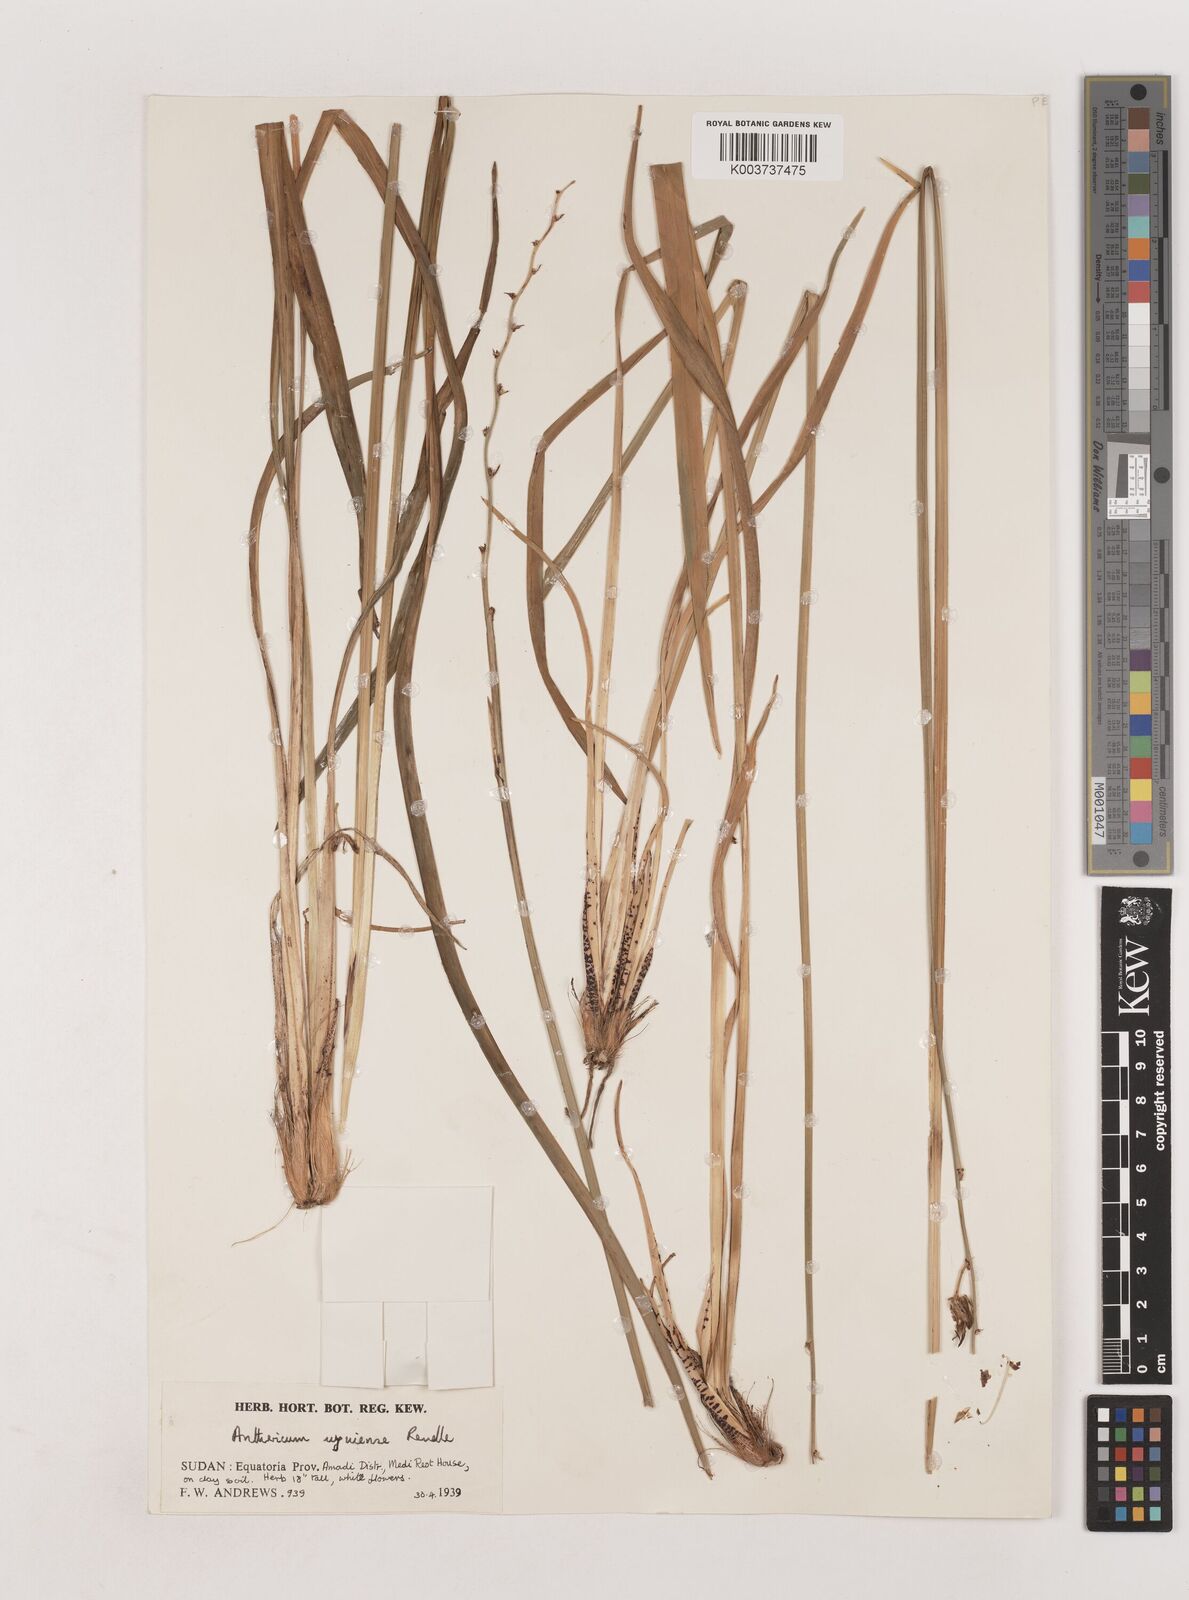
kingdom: Plantae
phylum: Tracheophyta
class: Liliopsida
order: Asparagales
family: Asparagaceae
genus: Chlorophytum
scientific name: Chlorophytum cameronii
